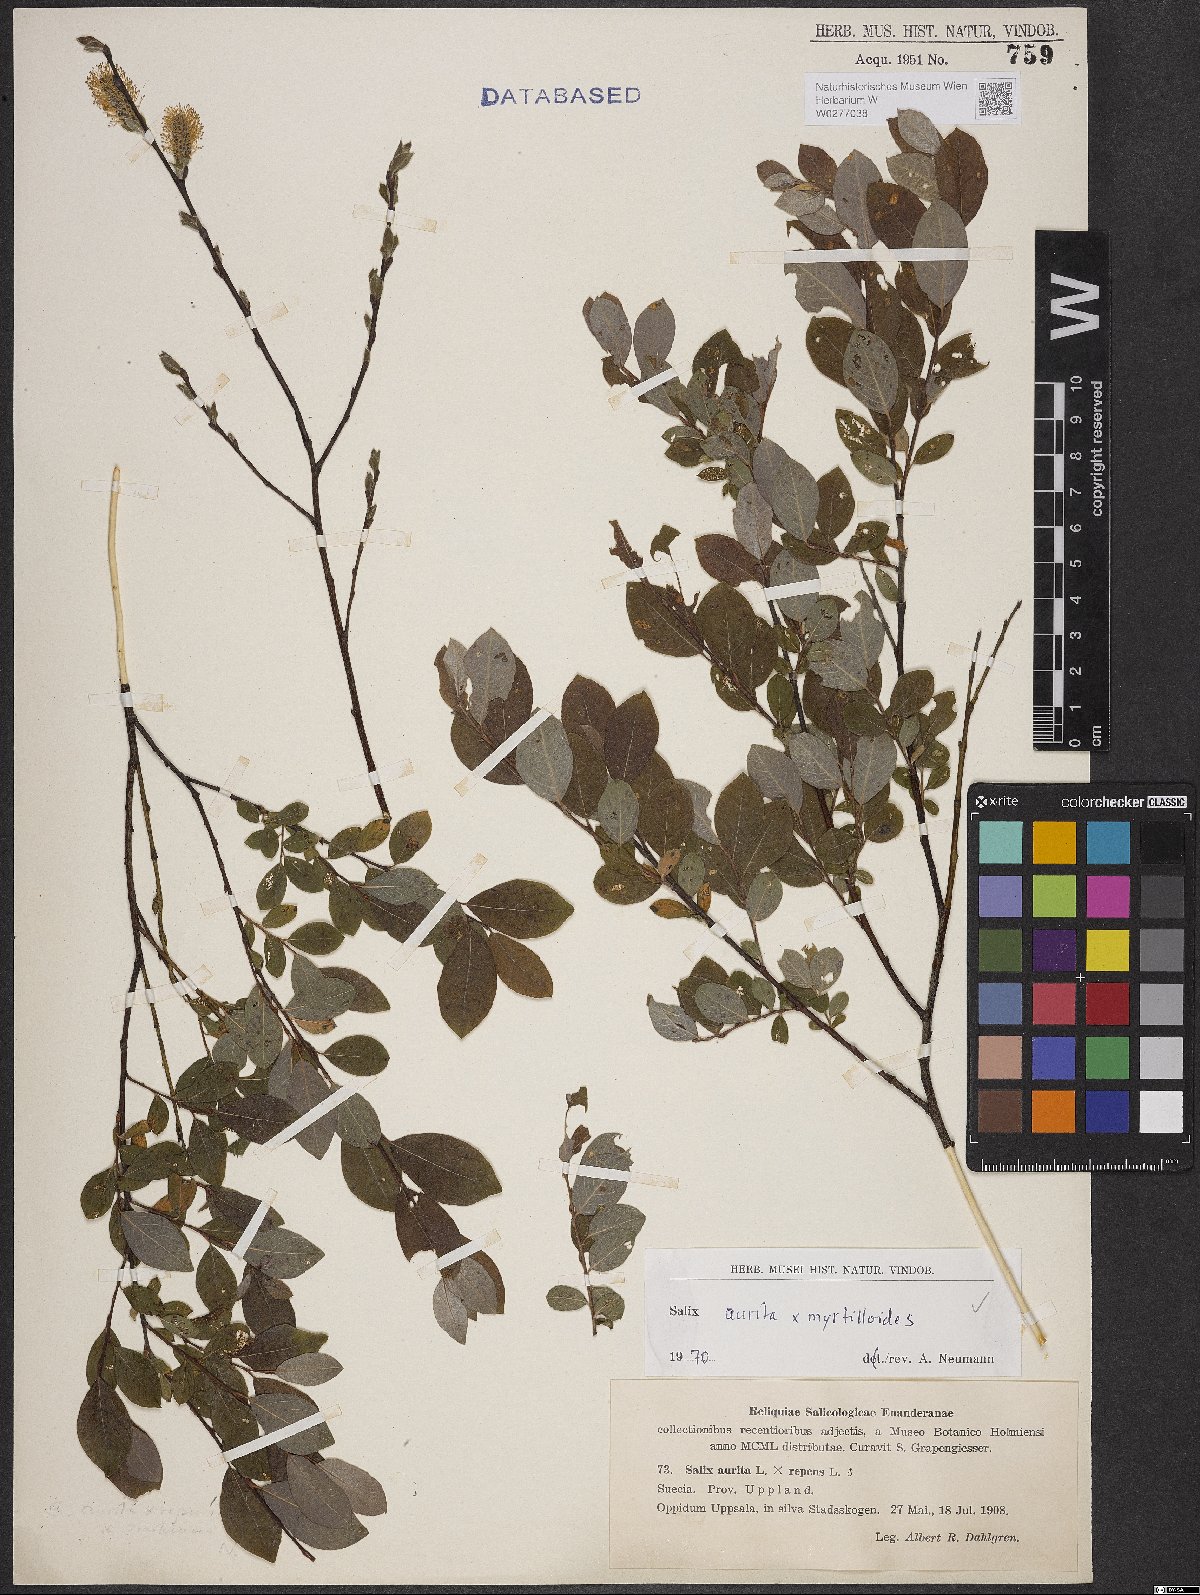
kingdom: Plantae
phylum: Tracheophyta
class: Magnoliopsida
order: Malpighiales
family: Salicaceae
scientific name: Salicaceae
